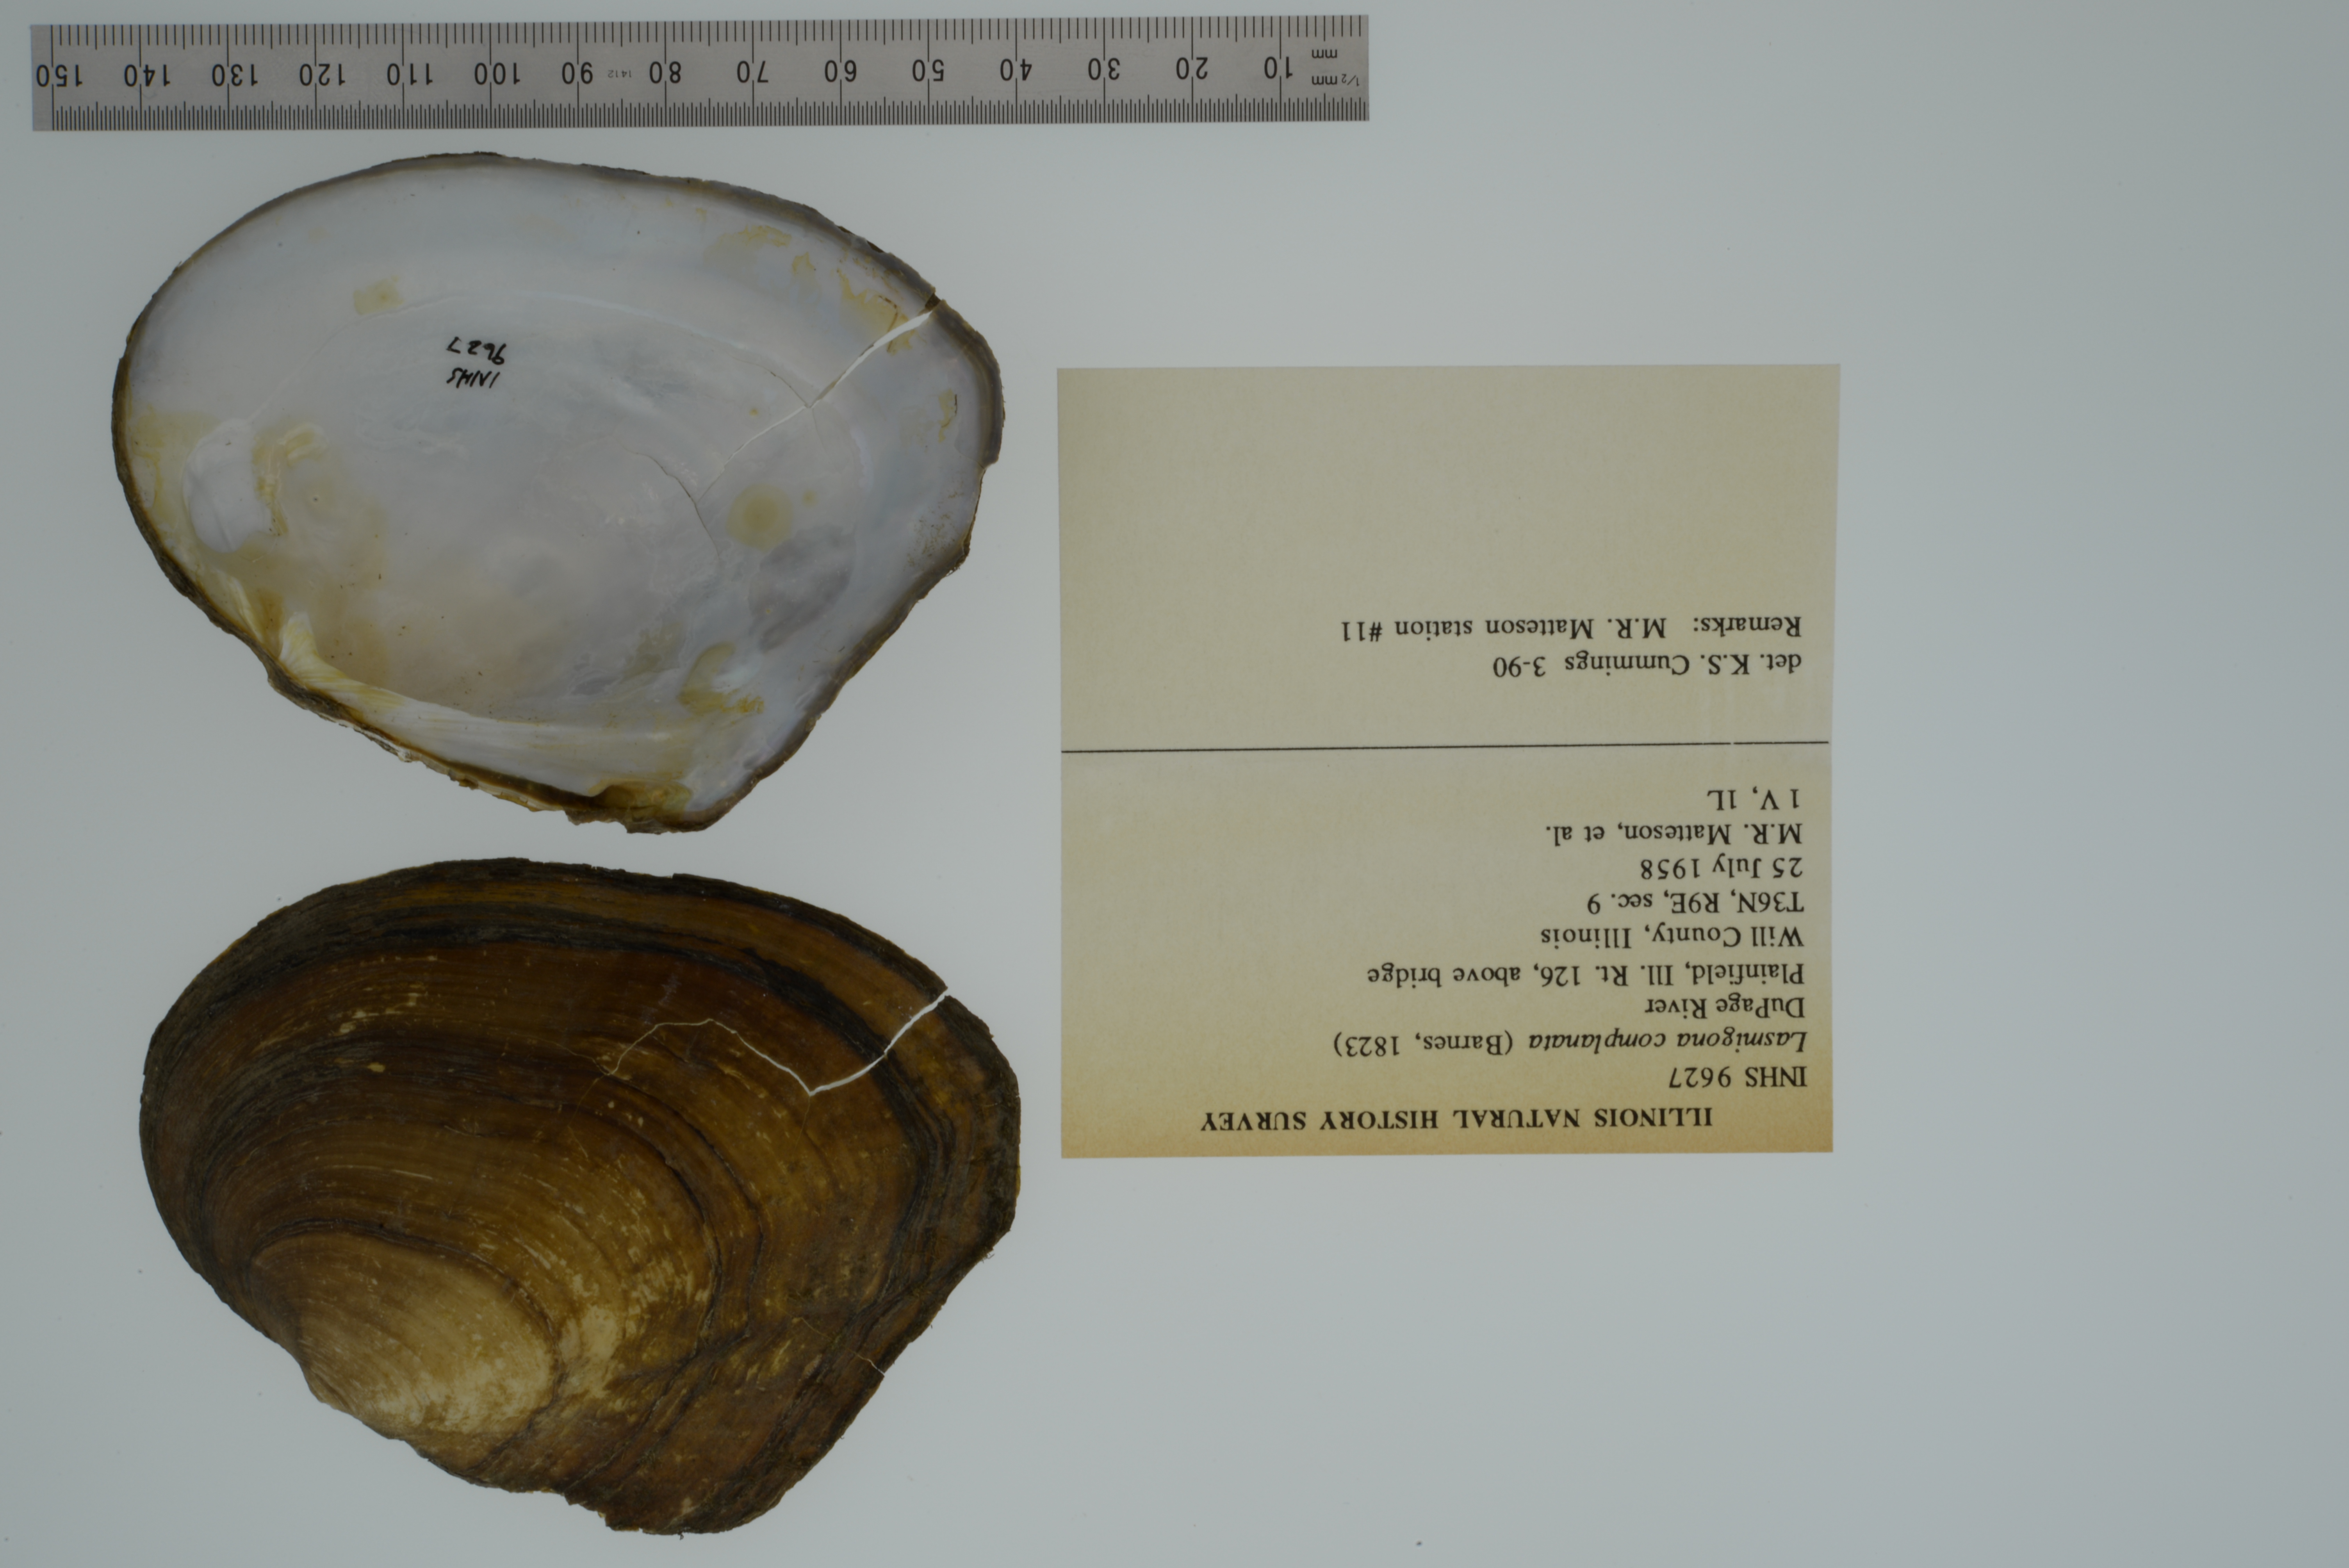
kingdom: Animalia
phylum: Mollusca
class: Bivalvia
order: Unionida
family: Unionidae
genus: Lasmigona
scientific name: Lasmigona complanata
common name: White heelsplitter
